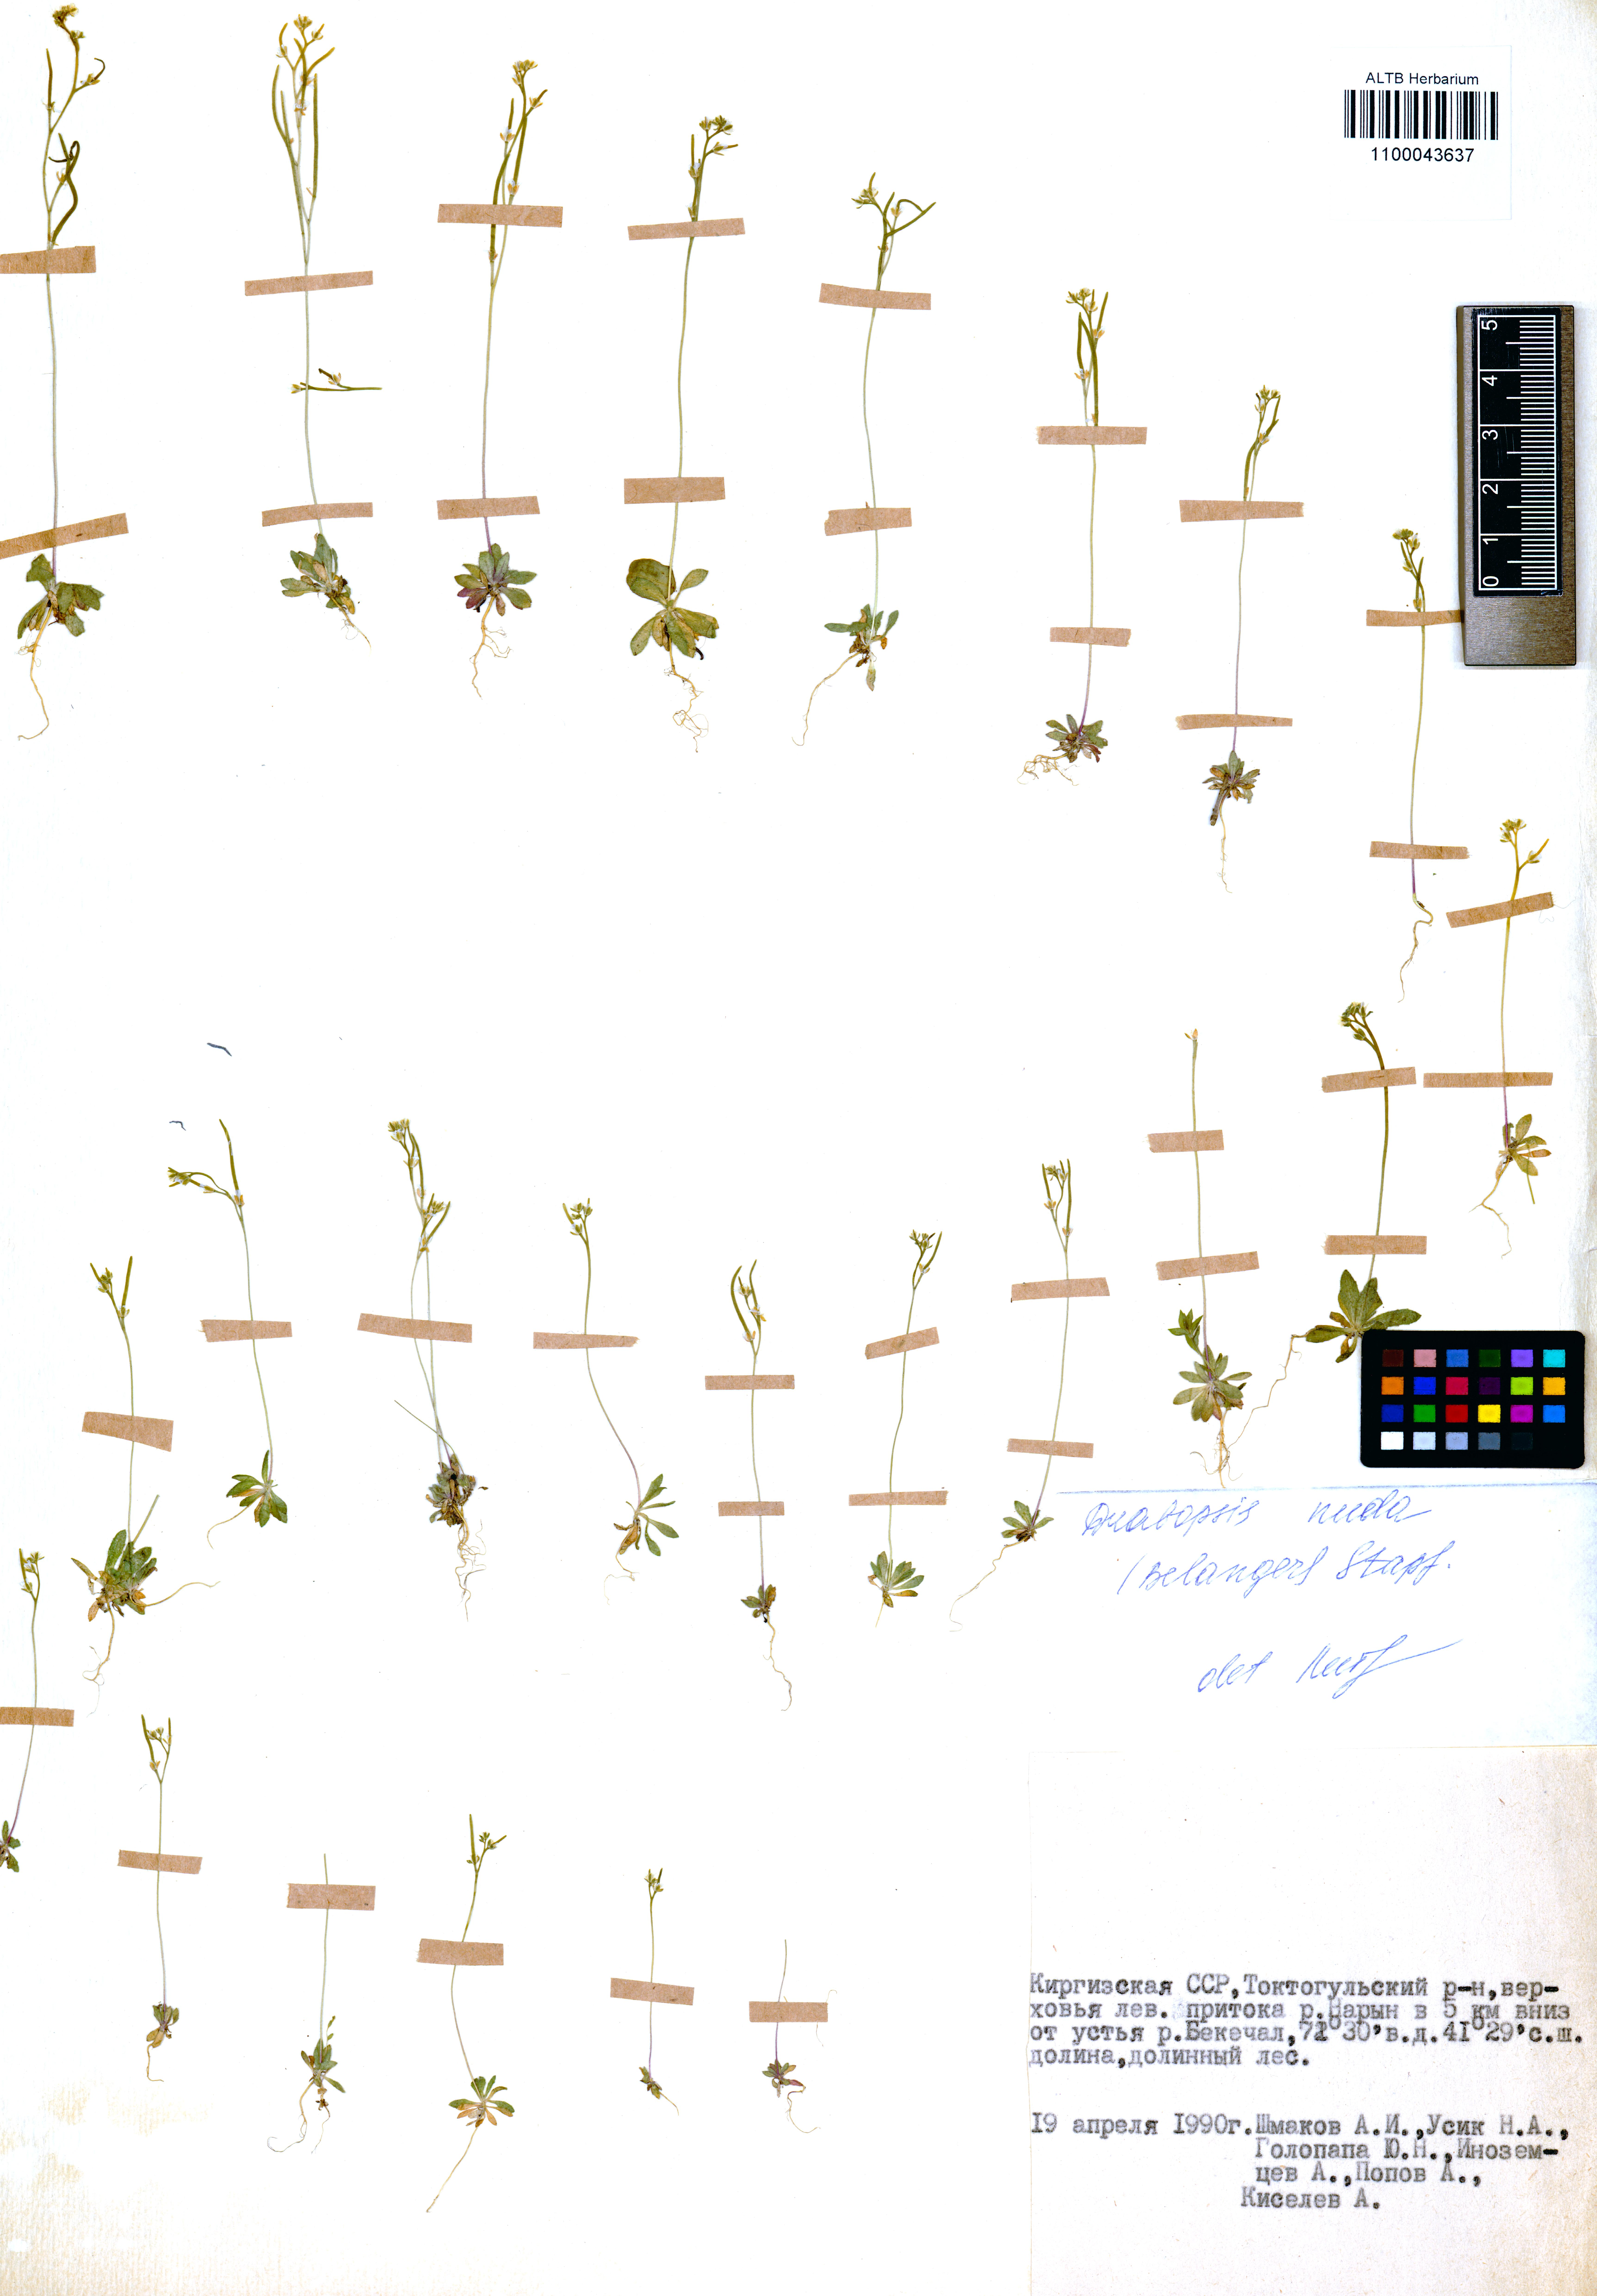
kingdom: Plantae
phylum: Tracheophyta
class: Magnoliopsida
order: Brassicales
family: Brassicaceae
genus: Draba
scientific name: Draba nuda
